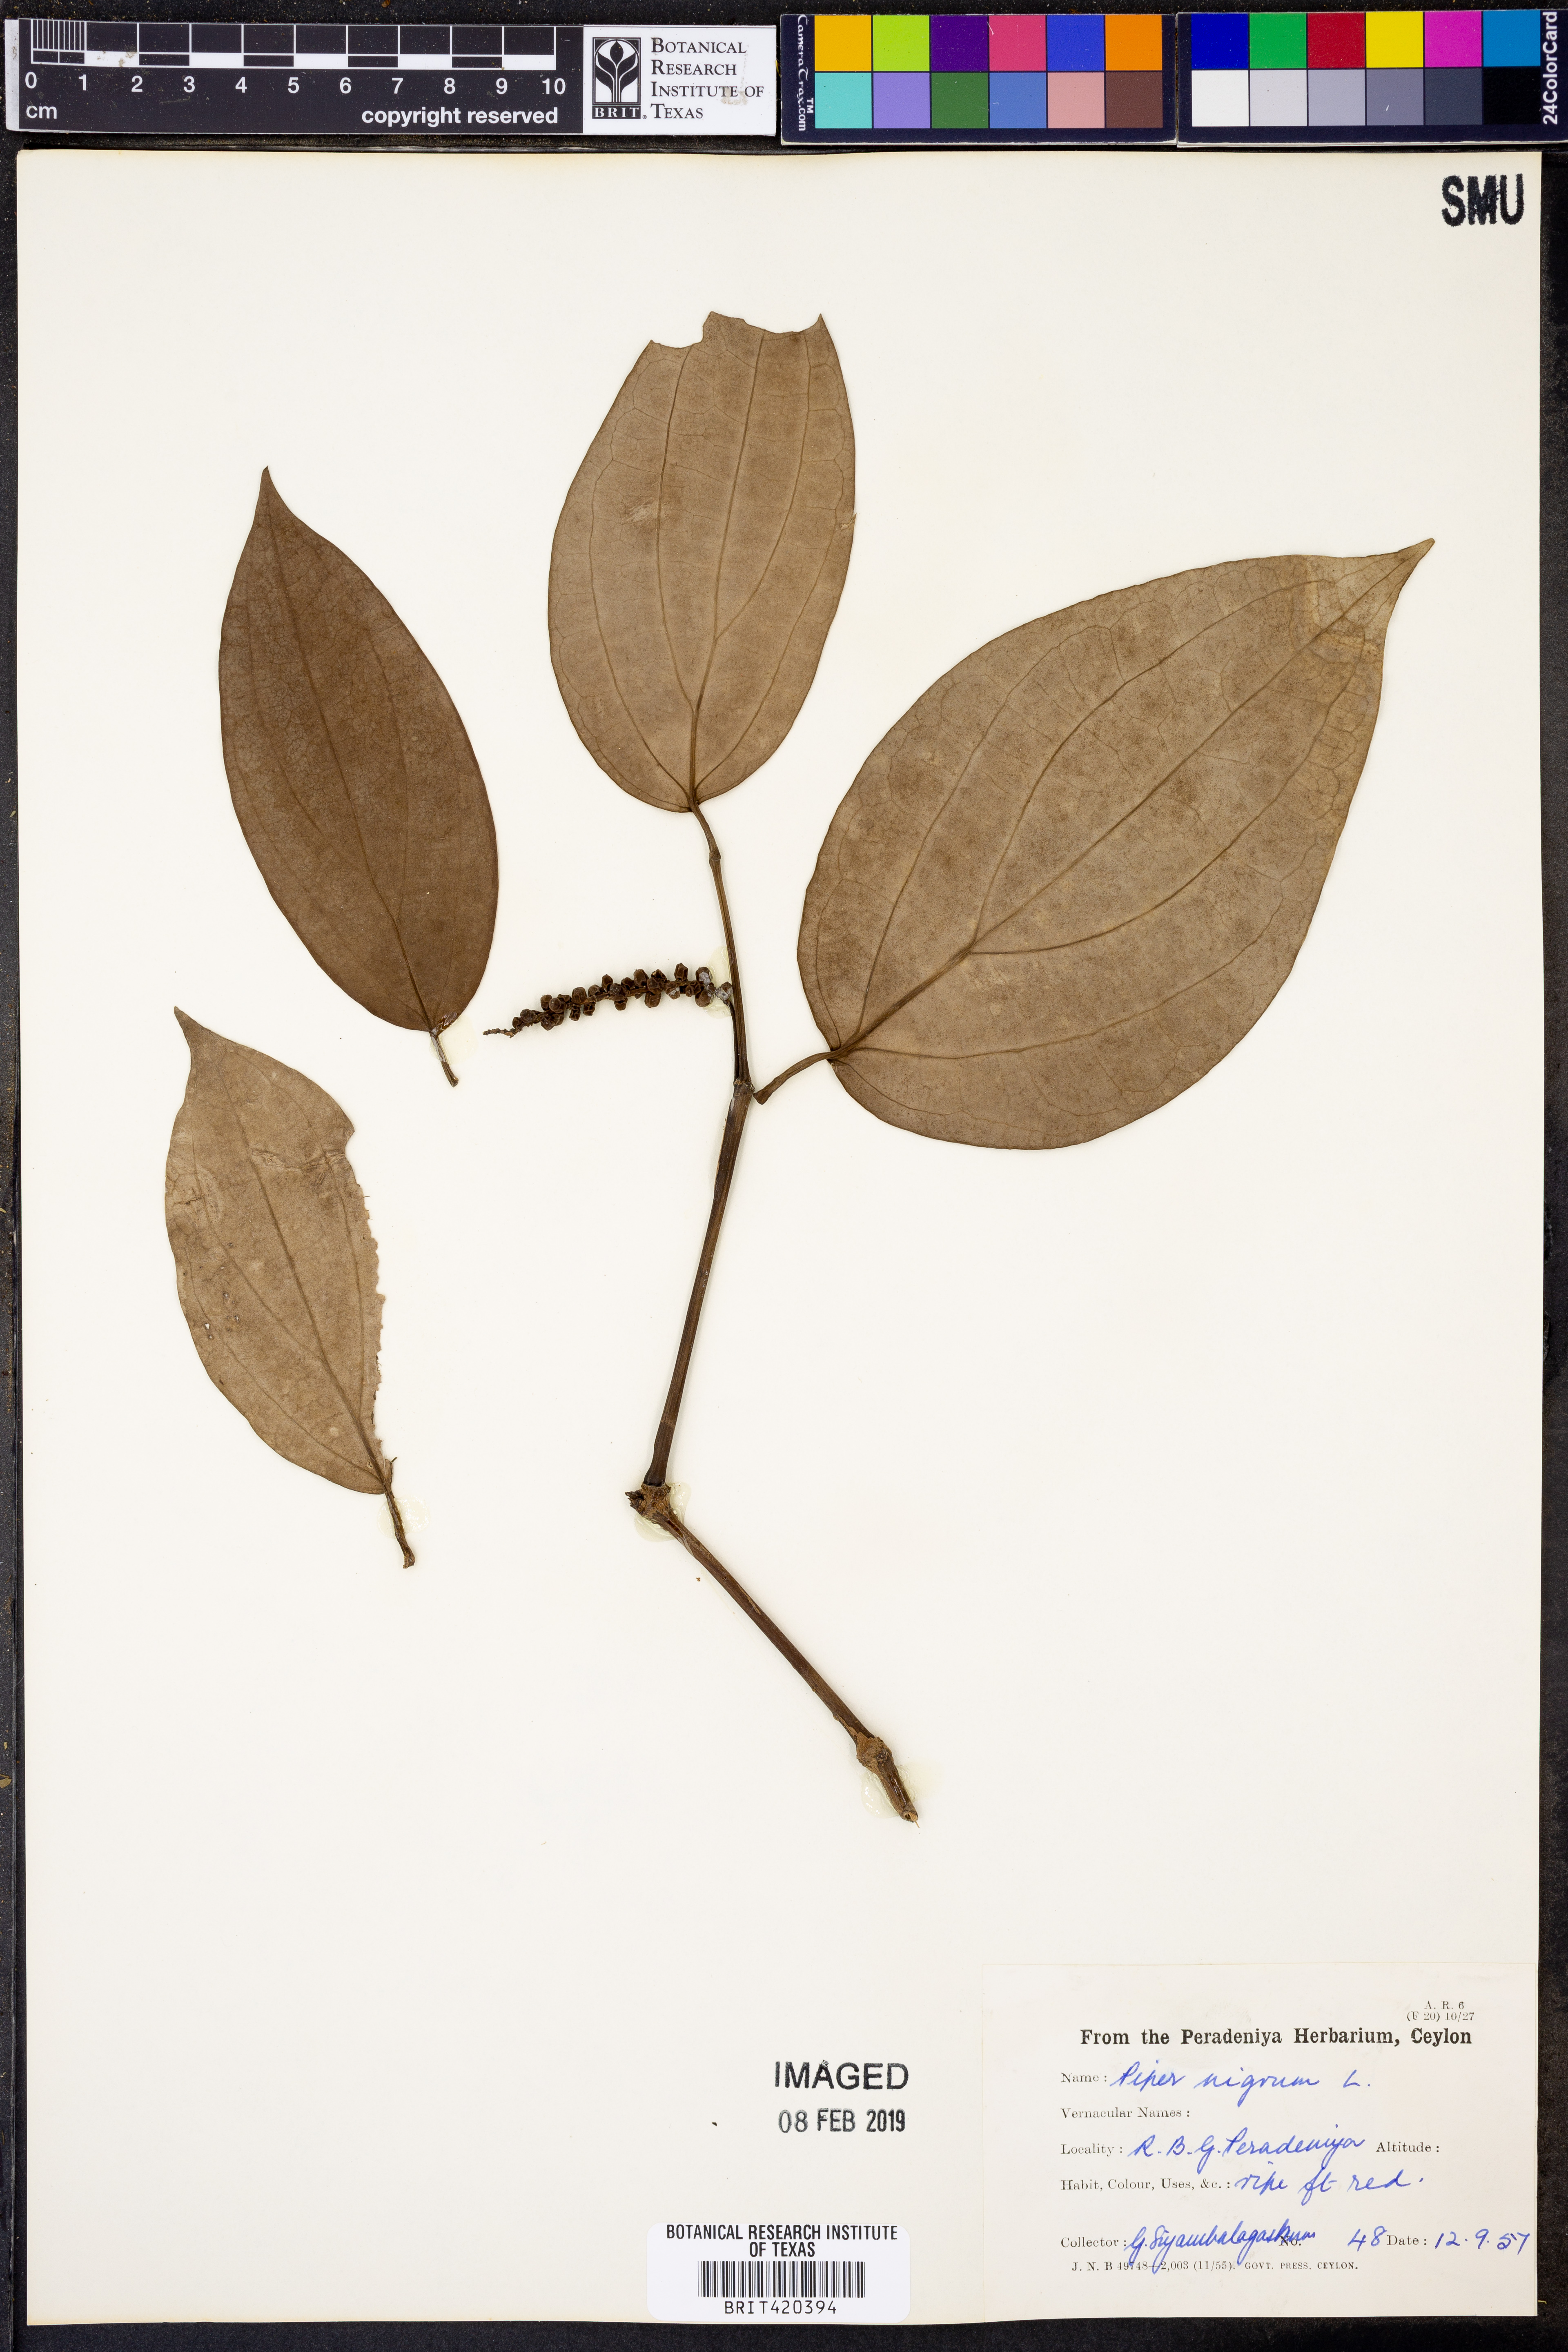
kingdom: Plantae
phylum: Tracheophyta
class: Magnoliopsida
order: Piperales
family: Piperaceae
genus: Piper
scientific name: Piper nigrum
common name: Black pepper
